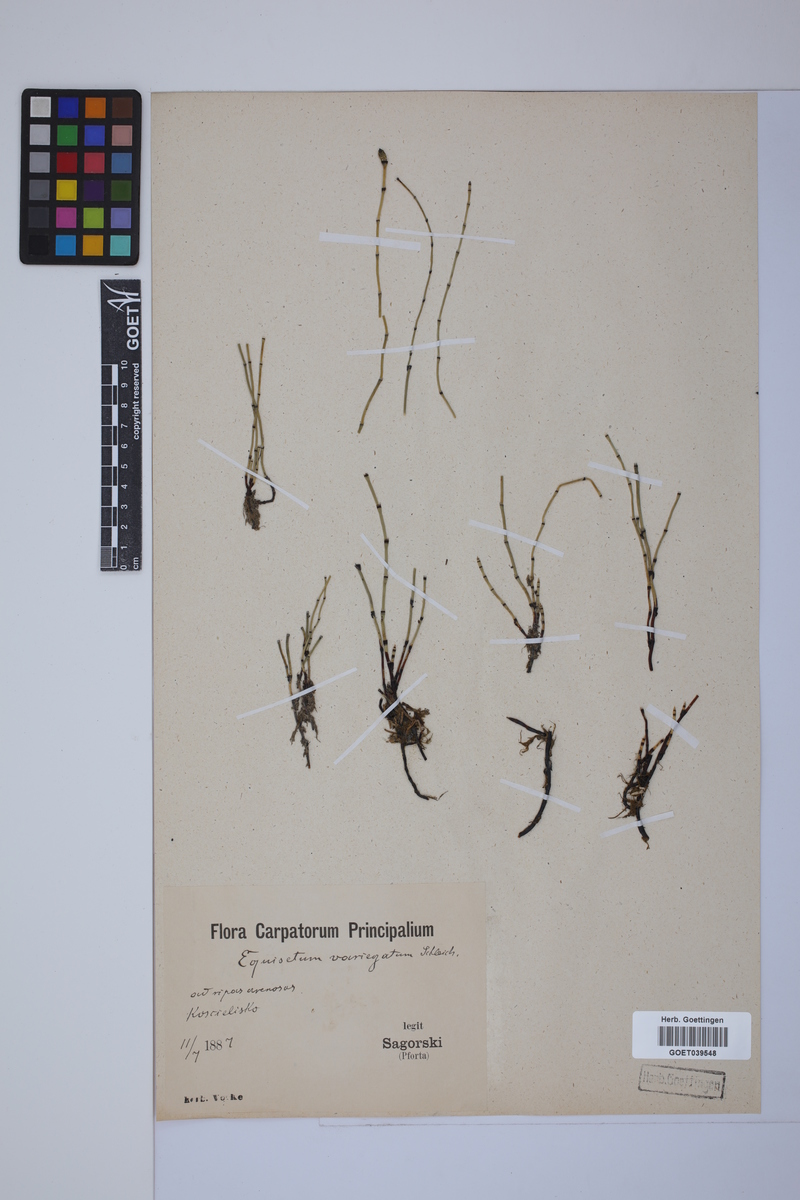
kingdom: Plantae
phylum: Tracheophyta
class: Polypodiopsida
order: Equisetales
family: Equisetaceae
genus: Equisetum
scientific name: Equisetum variegatum
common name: Variegated horsetail
